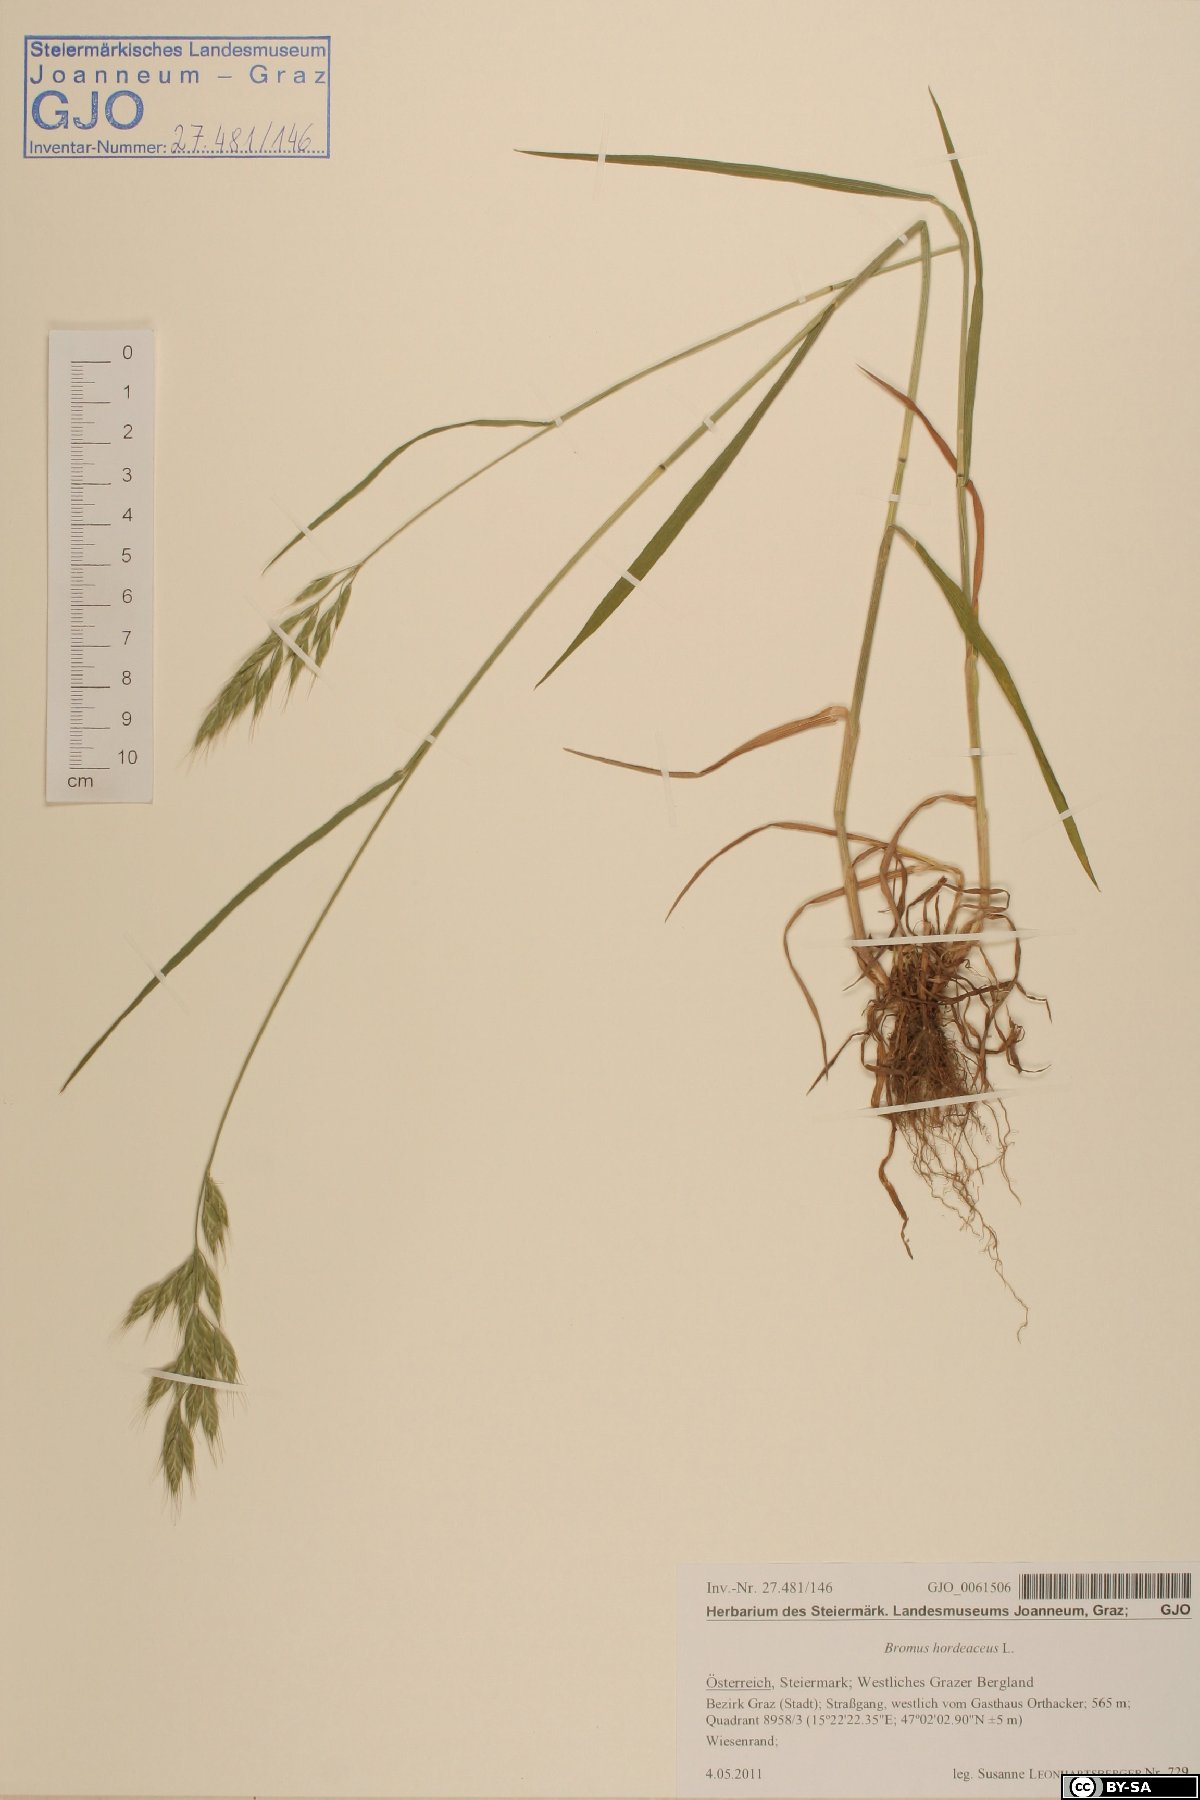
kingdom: Plantae
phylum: Tracheophyta
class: Liliopsida
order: Poales
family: Poaceae
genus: Bromus
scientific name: Bromus hordeaceus
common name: Soft brome
